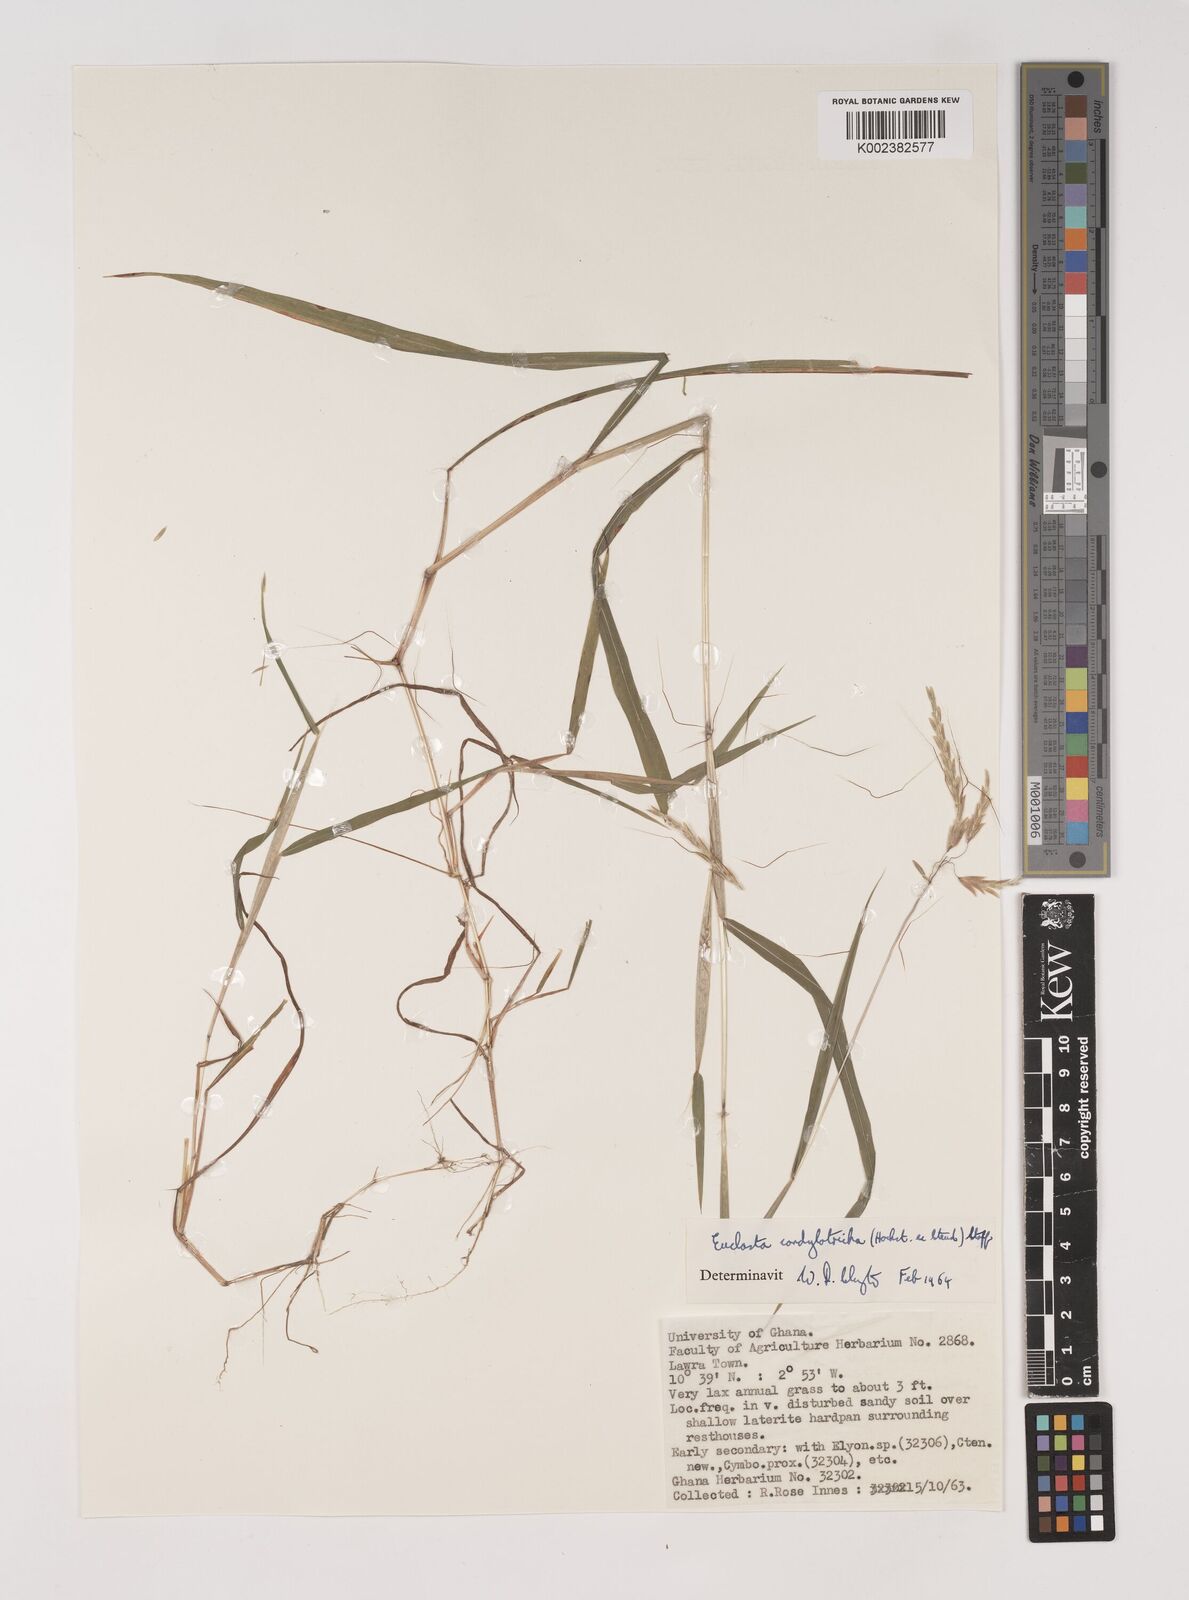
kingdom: Plantae
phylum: Tracheophyta
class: Liliopsida
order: Poales
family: Poaceae
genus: Euclasta
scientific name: Euclasta condylotricha
